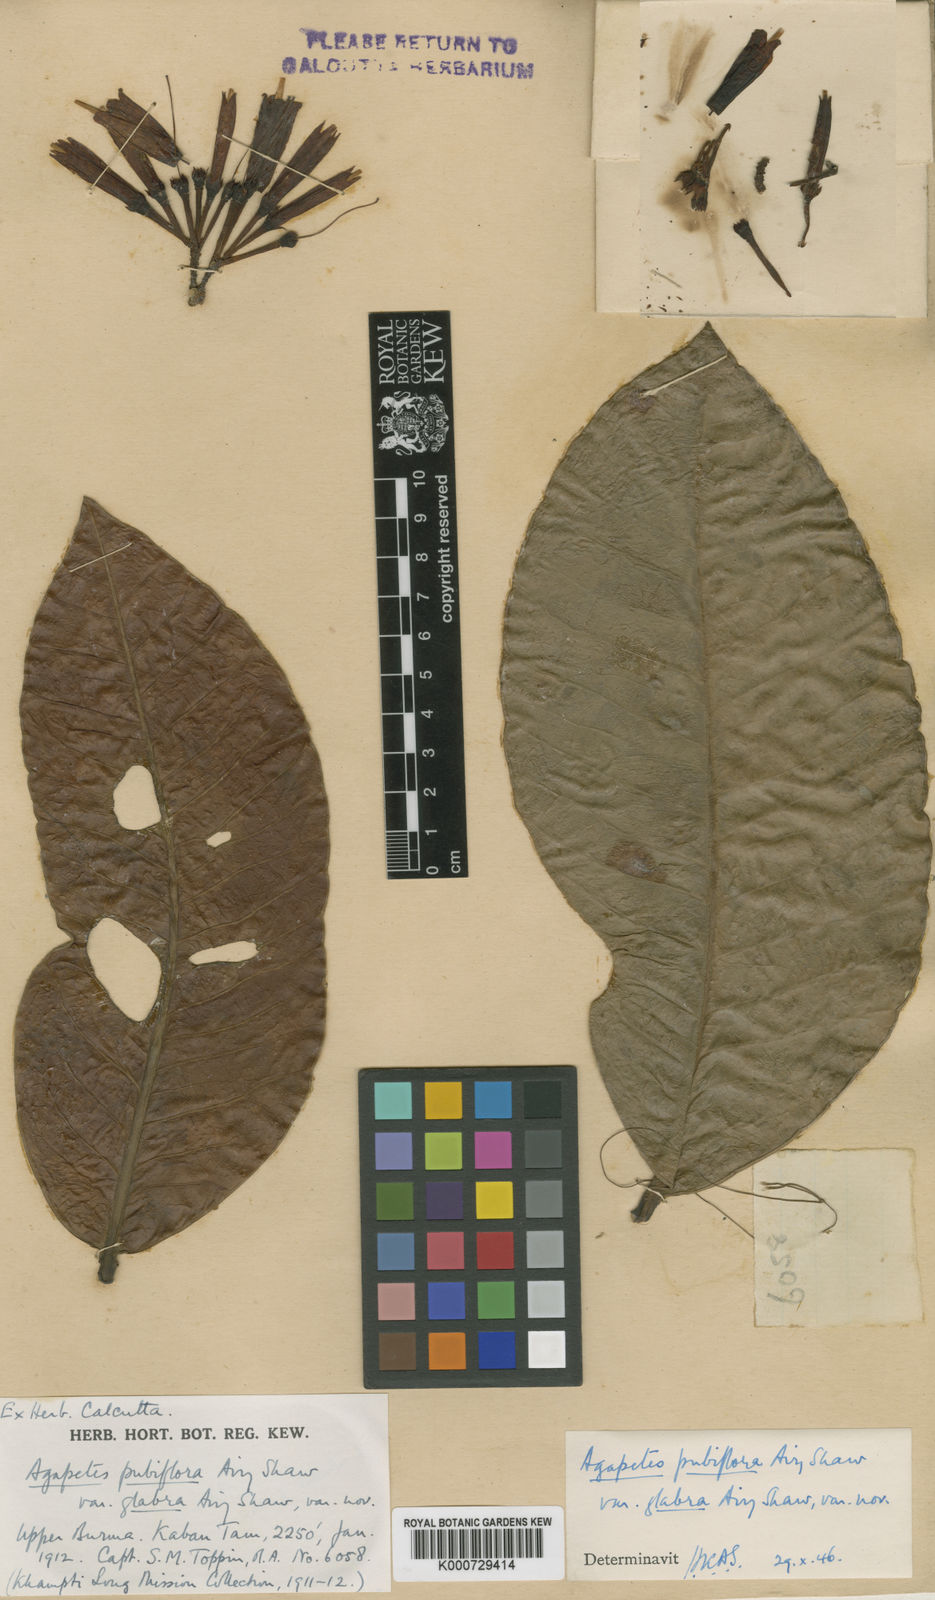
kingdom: Plantae
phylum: Tracheophyta
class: Magnoliopsida
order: Ericales
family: Ericaceae
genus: Agapetes
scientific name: Agapetes pubiflora
